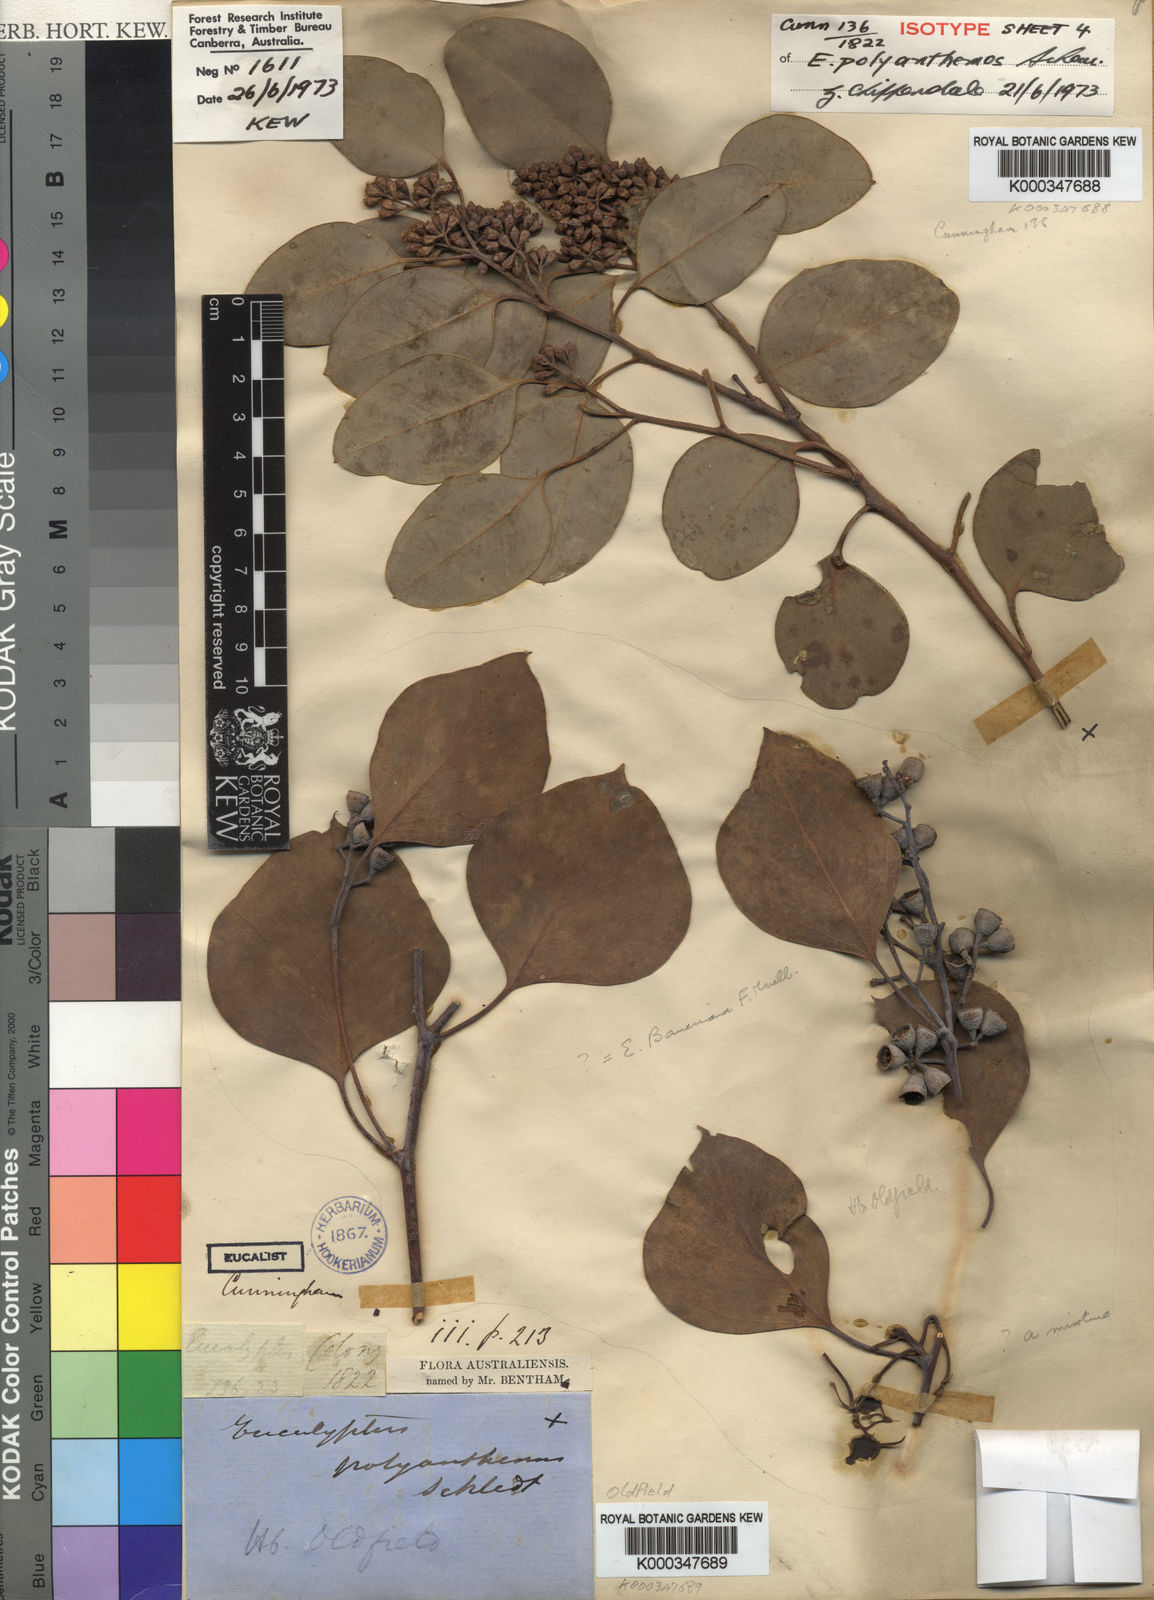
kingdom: Plantae
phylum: Tracheophyta
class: Magnoliopsida
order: Myrtales
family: Myrtaceae
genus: Eucalyptus
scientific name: Eucalyptus polyanthemos
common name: Red-box
